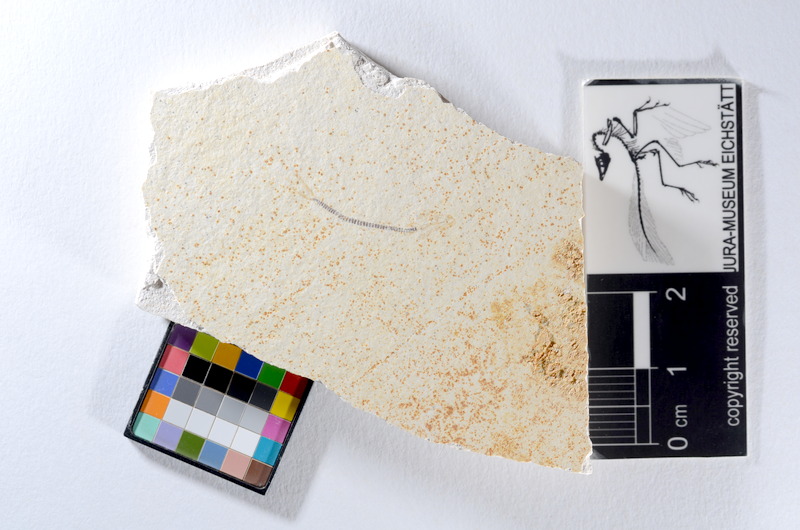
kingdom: Animalia
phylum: Chordata
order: Salmoniformes
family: Orthogonikleithridae
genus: Orthogonikleithrus
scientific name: Orthogonikleithrus hoelli
